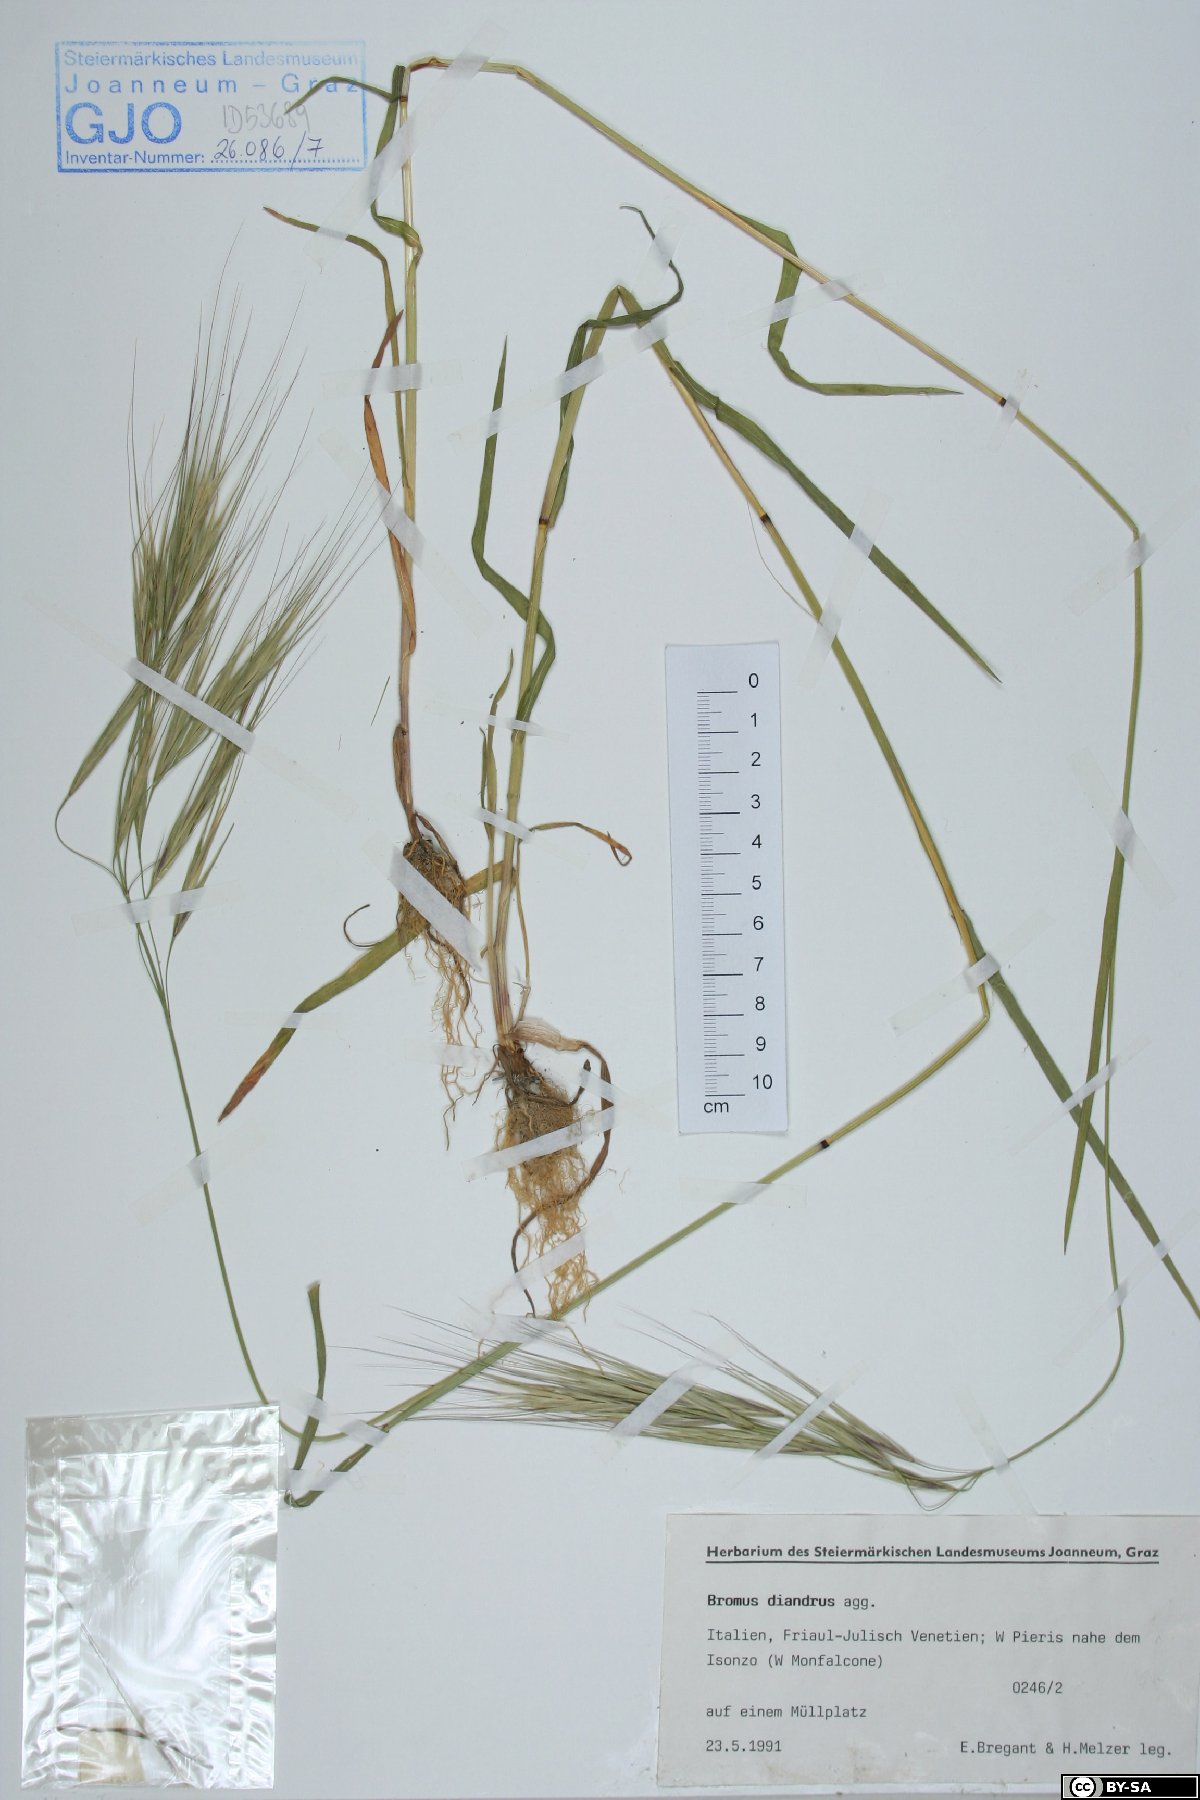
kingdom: Plantae
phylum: Tracheophyta
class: Liliopsida
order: Poales
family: Poaceae
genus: Bromus
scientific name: Bromus diandrus
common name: Ripgut brome
